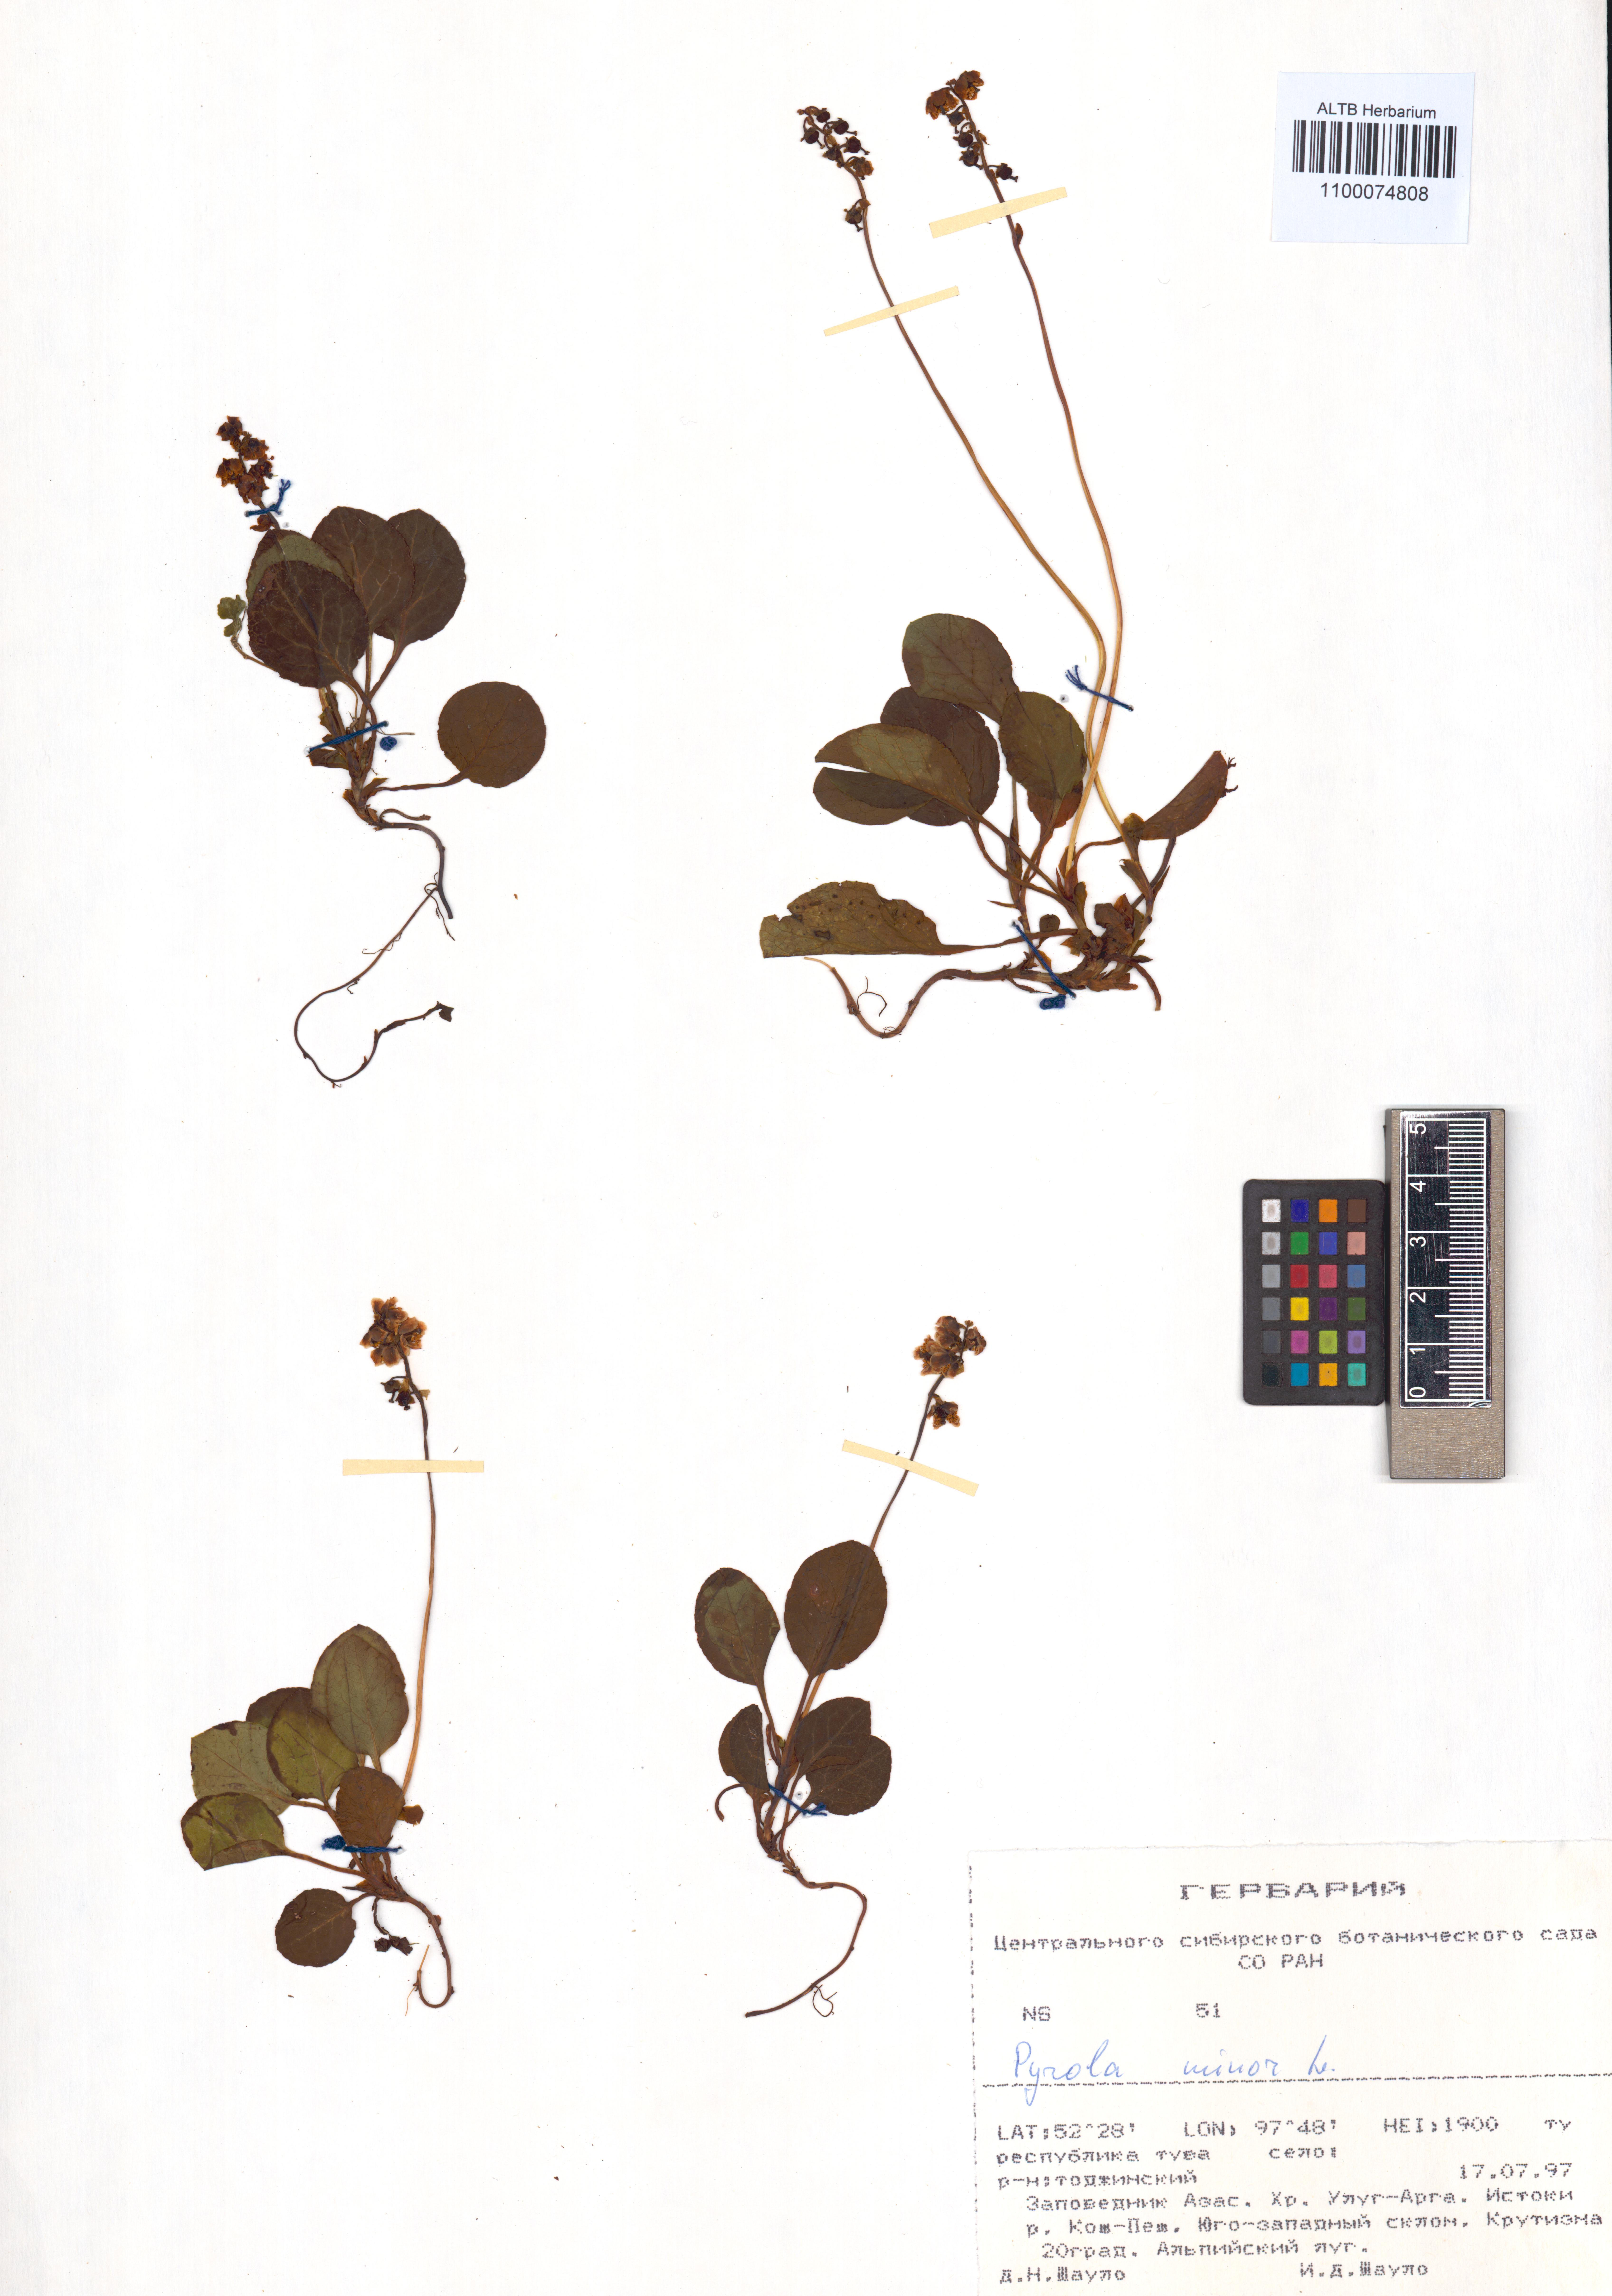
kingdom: Plantae
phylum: Tracheophyta
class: Magnoliopsida
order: Ericales
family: Ericaceae
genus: Pyrola
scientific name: Pyrola minor
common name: Common wintergreen
